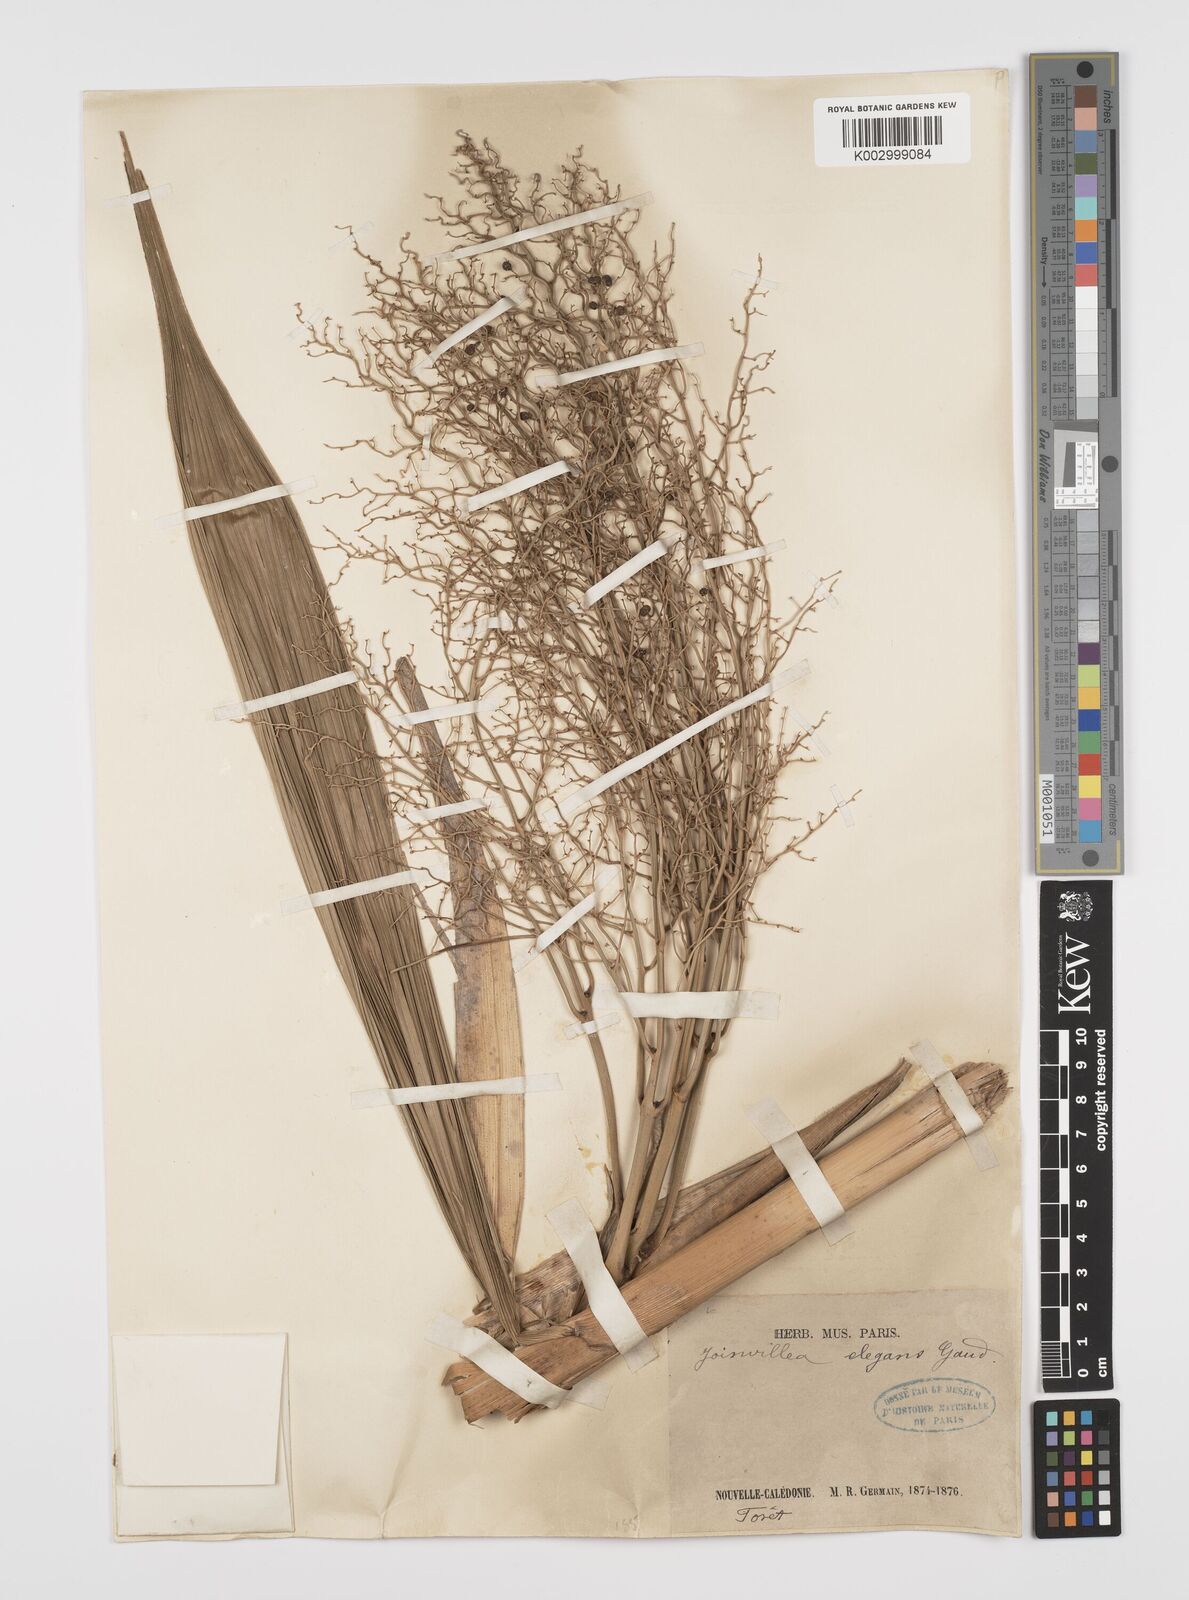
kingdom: Plantae
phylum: Tracheophyta
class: Liliopsida
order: Poales
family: Joinvilleaceae
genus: Joinvillea
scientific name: Joinvillea plicata
